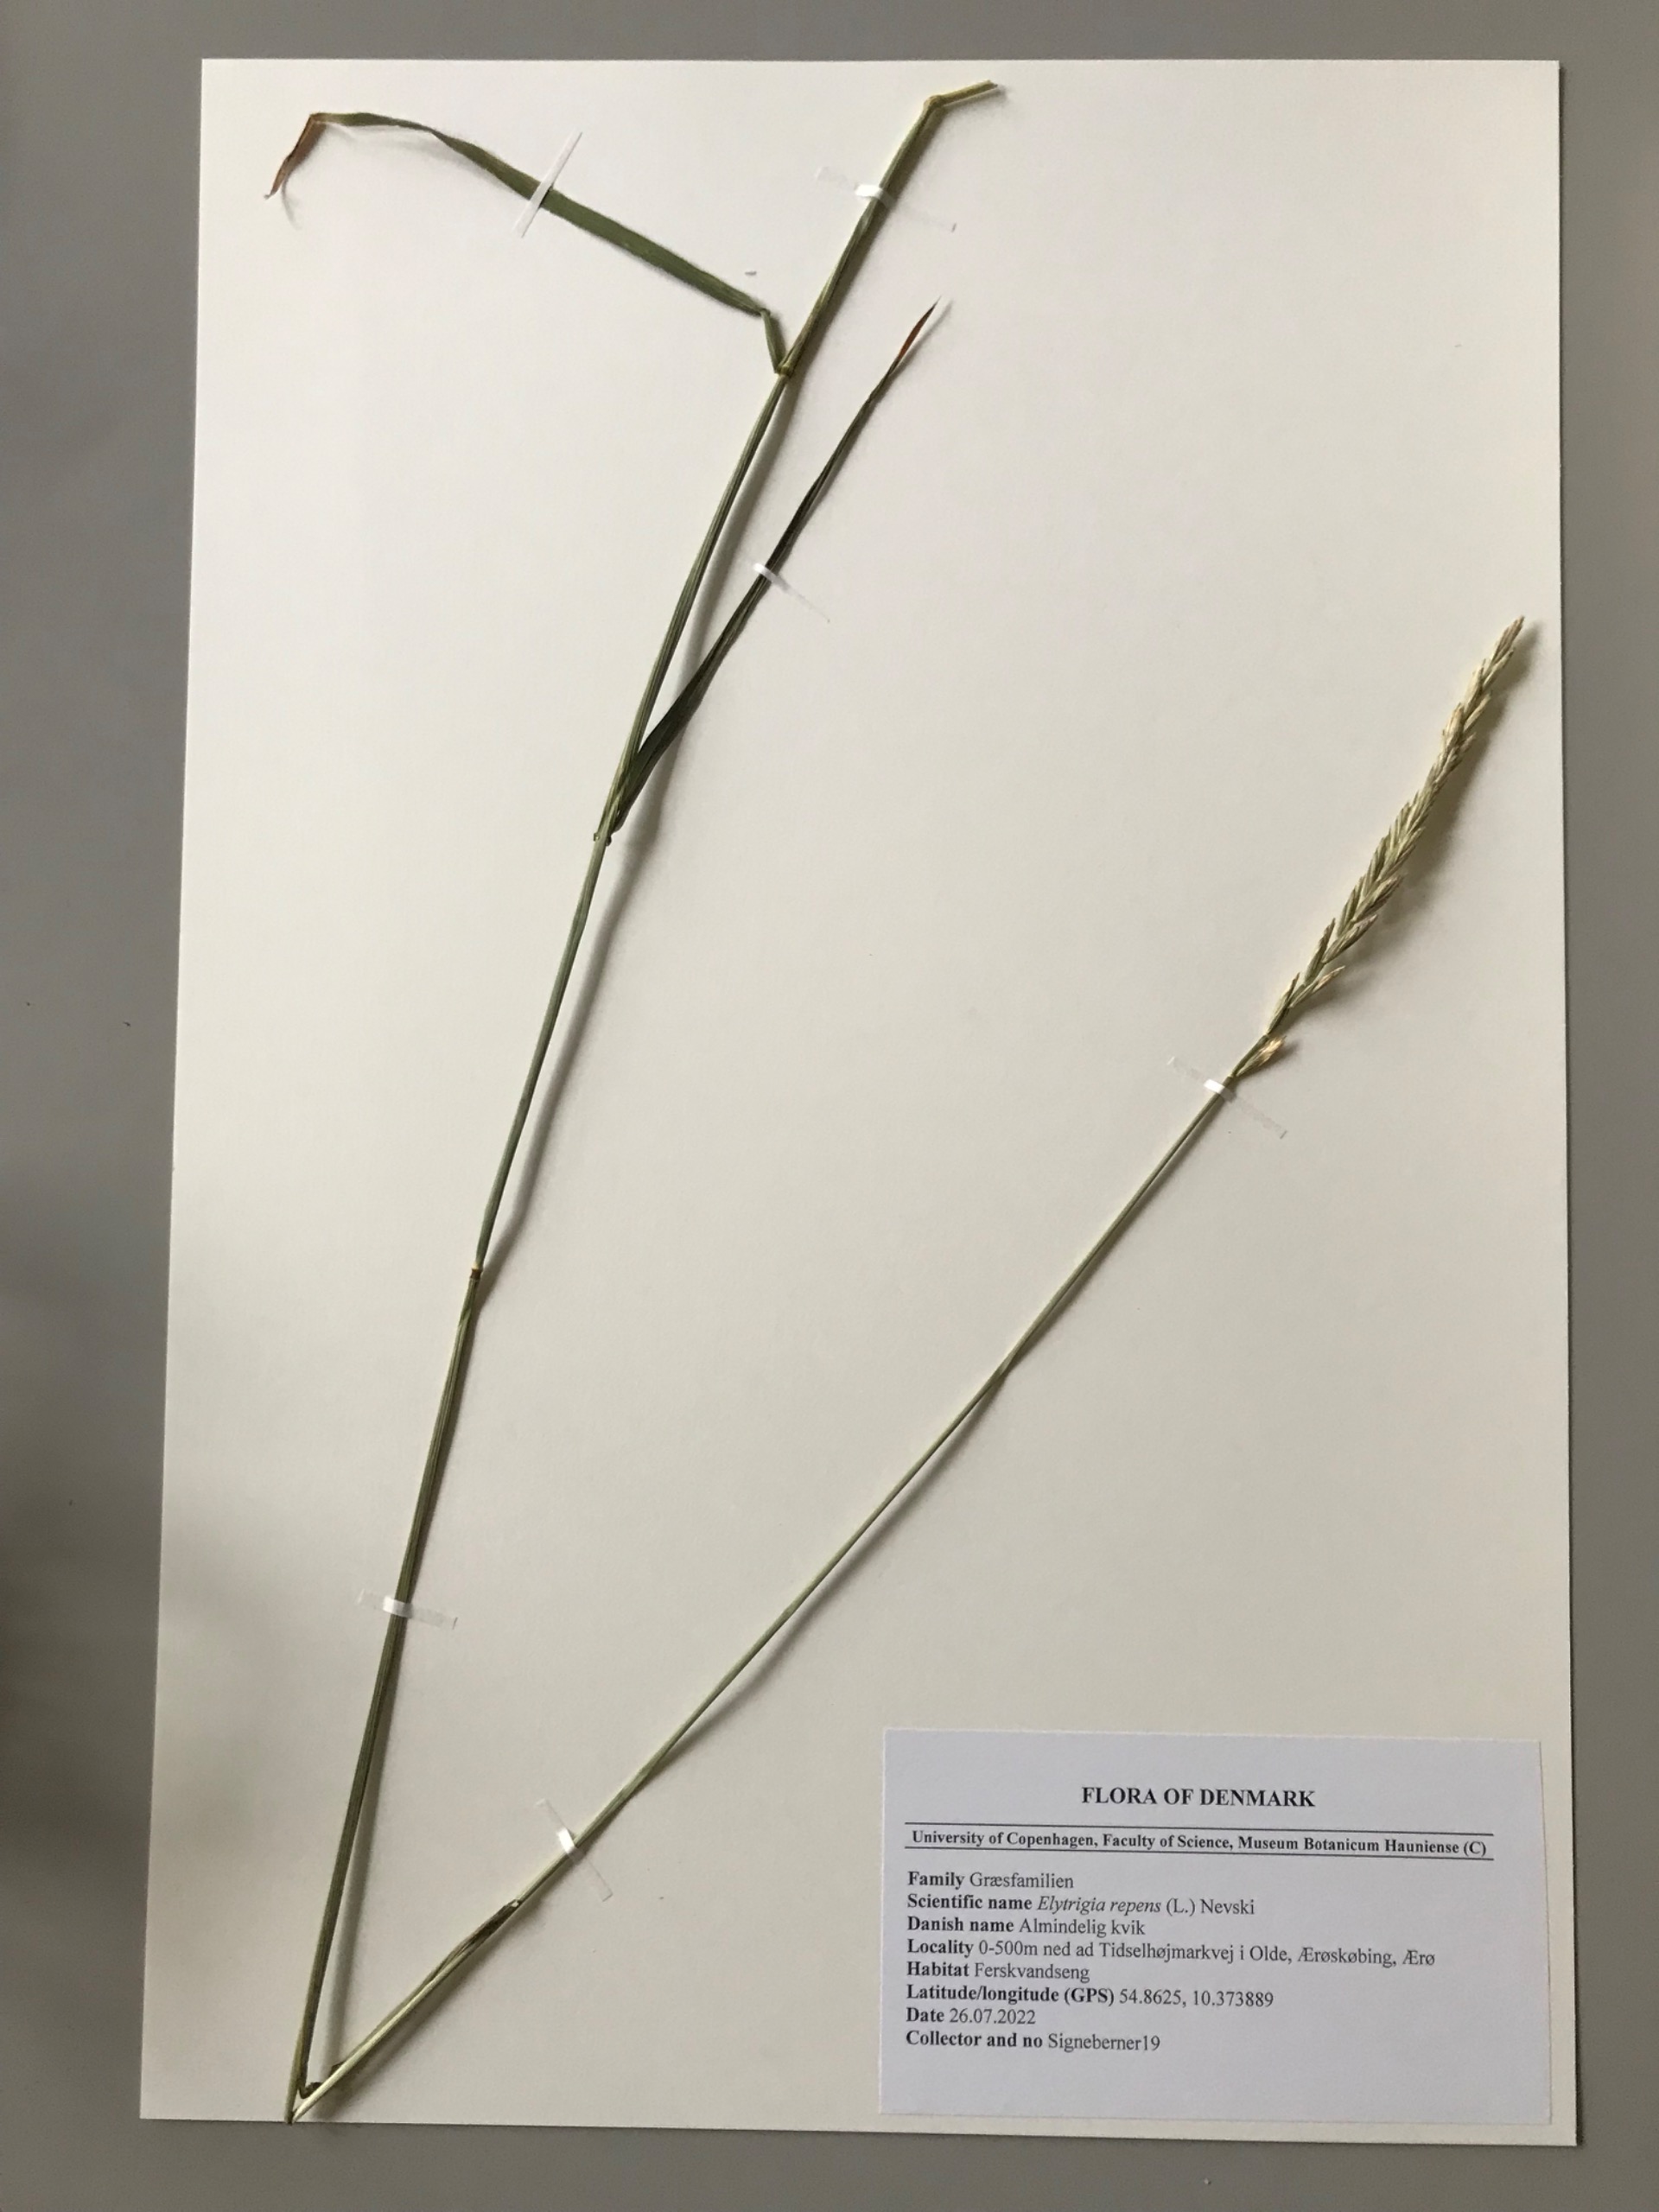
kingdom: Plantae
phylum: Tracheophyta
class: Liliopsida
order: Poales
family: Poaceae
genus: Elymus
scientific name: Elymus repens
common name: Almindelig kvik
